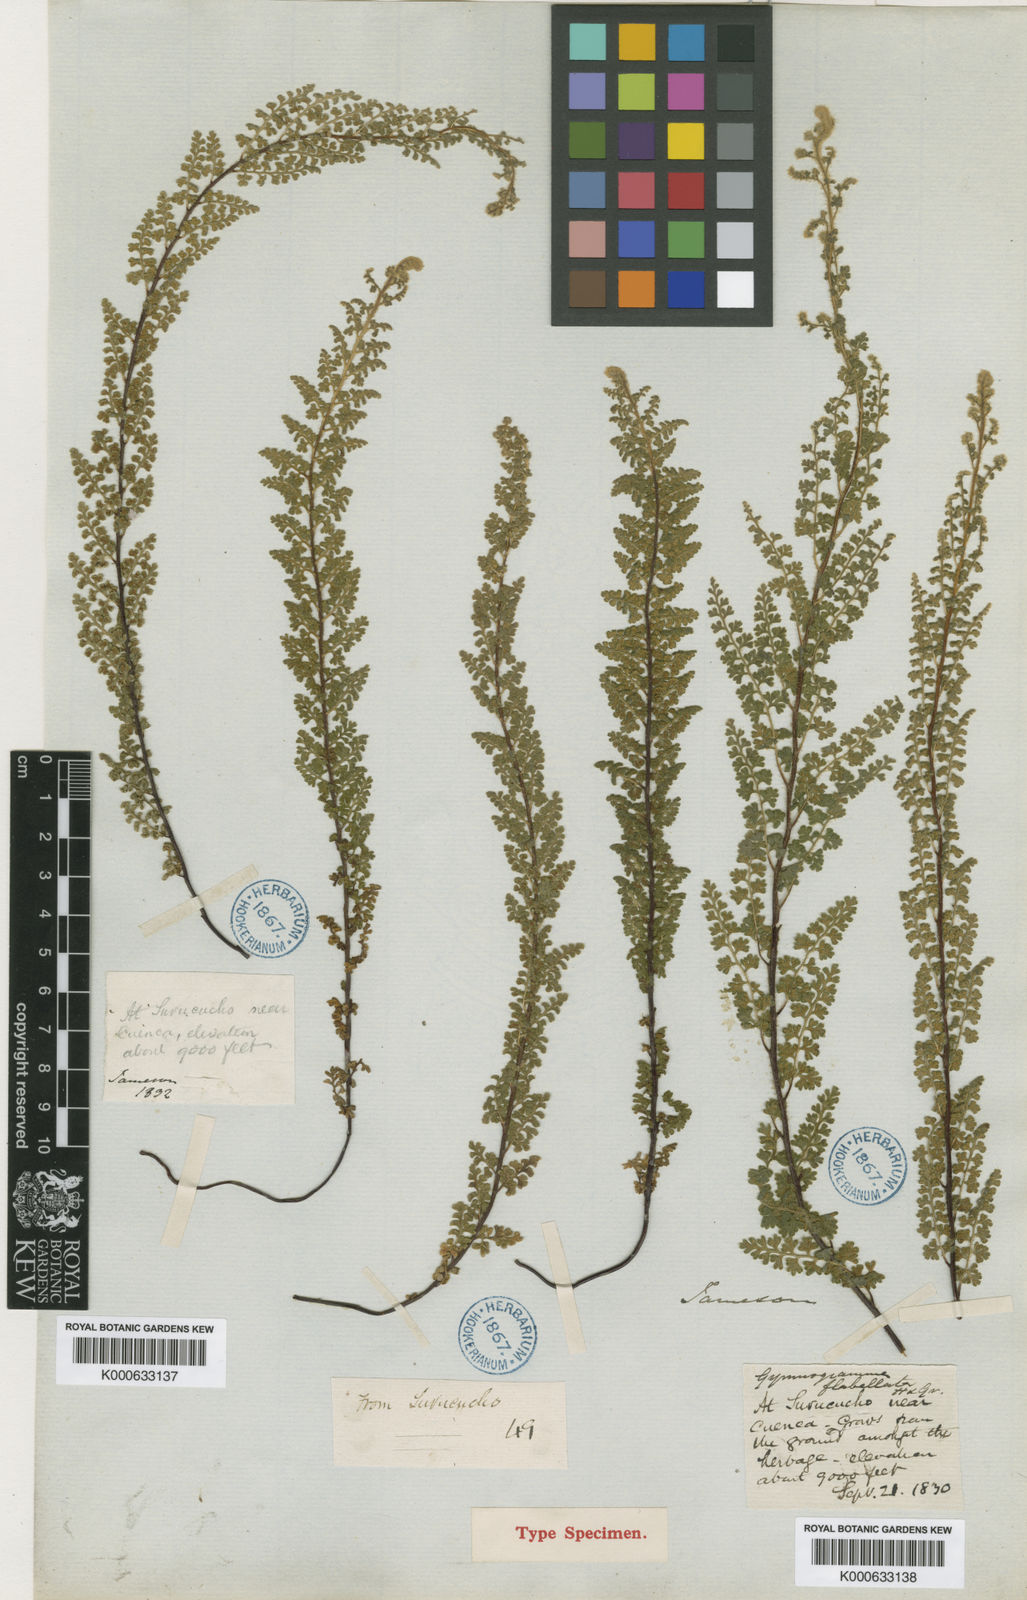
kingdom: Plantae
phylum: Tracheophyta
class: Polypodiopsida
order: Polypodiales
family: Pteridaceae
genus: Jamesonia
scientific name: Jamesonia flexuosa
